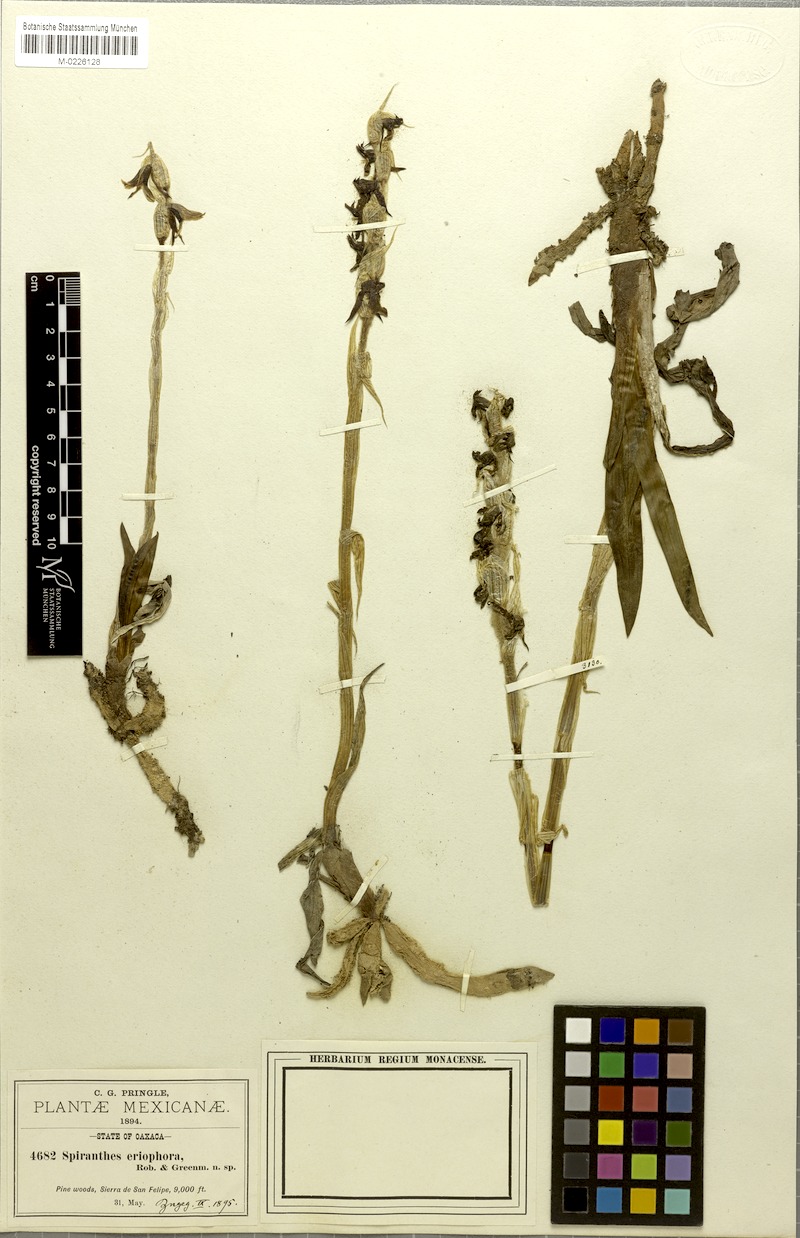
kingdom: Plantae
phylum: Tracheophyta
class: Liliopsida
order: Asparagales
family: Orchidaceae
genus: Deiregyne
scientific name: Deiregyne eriophora
